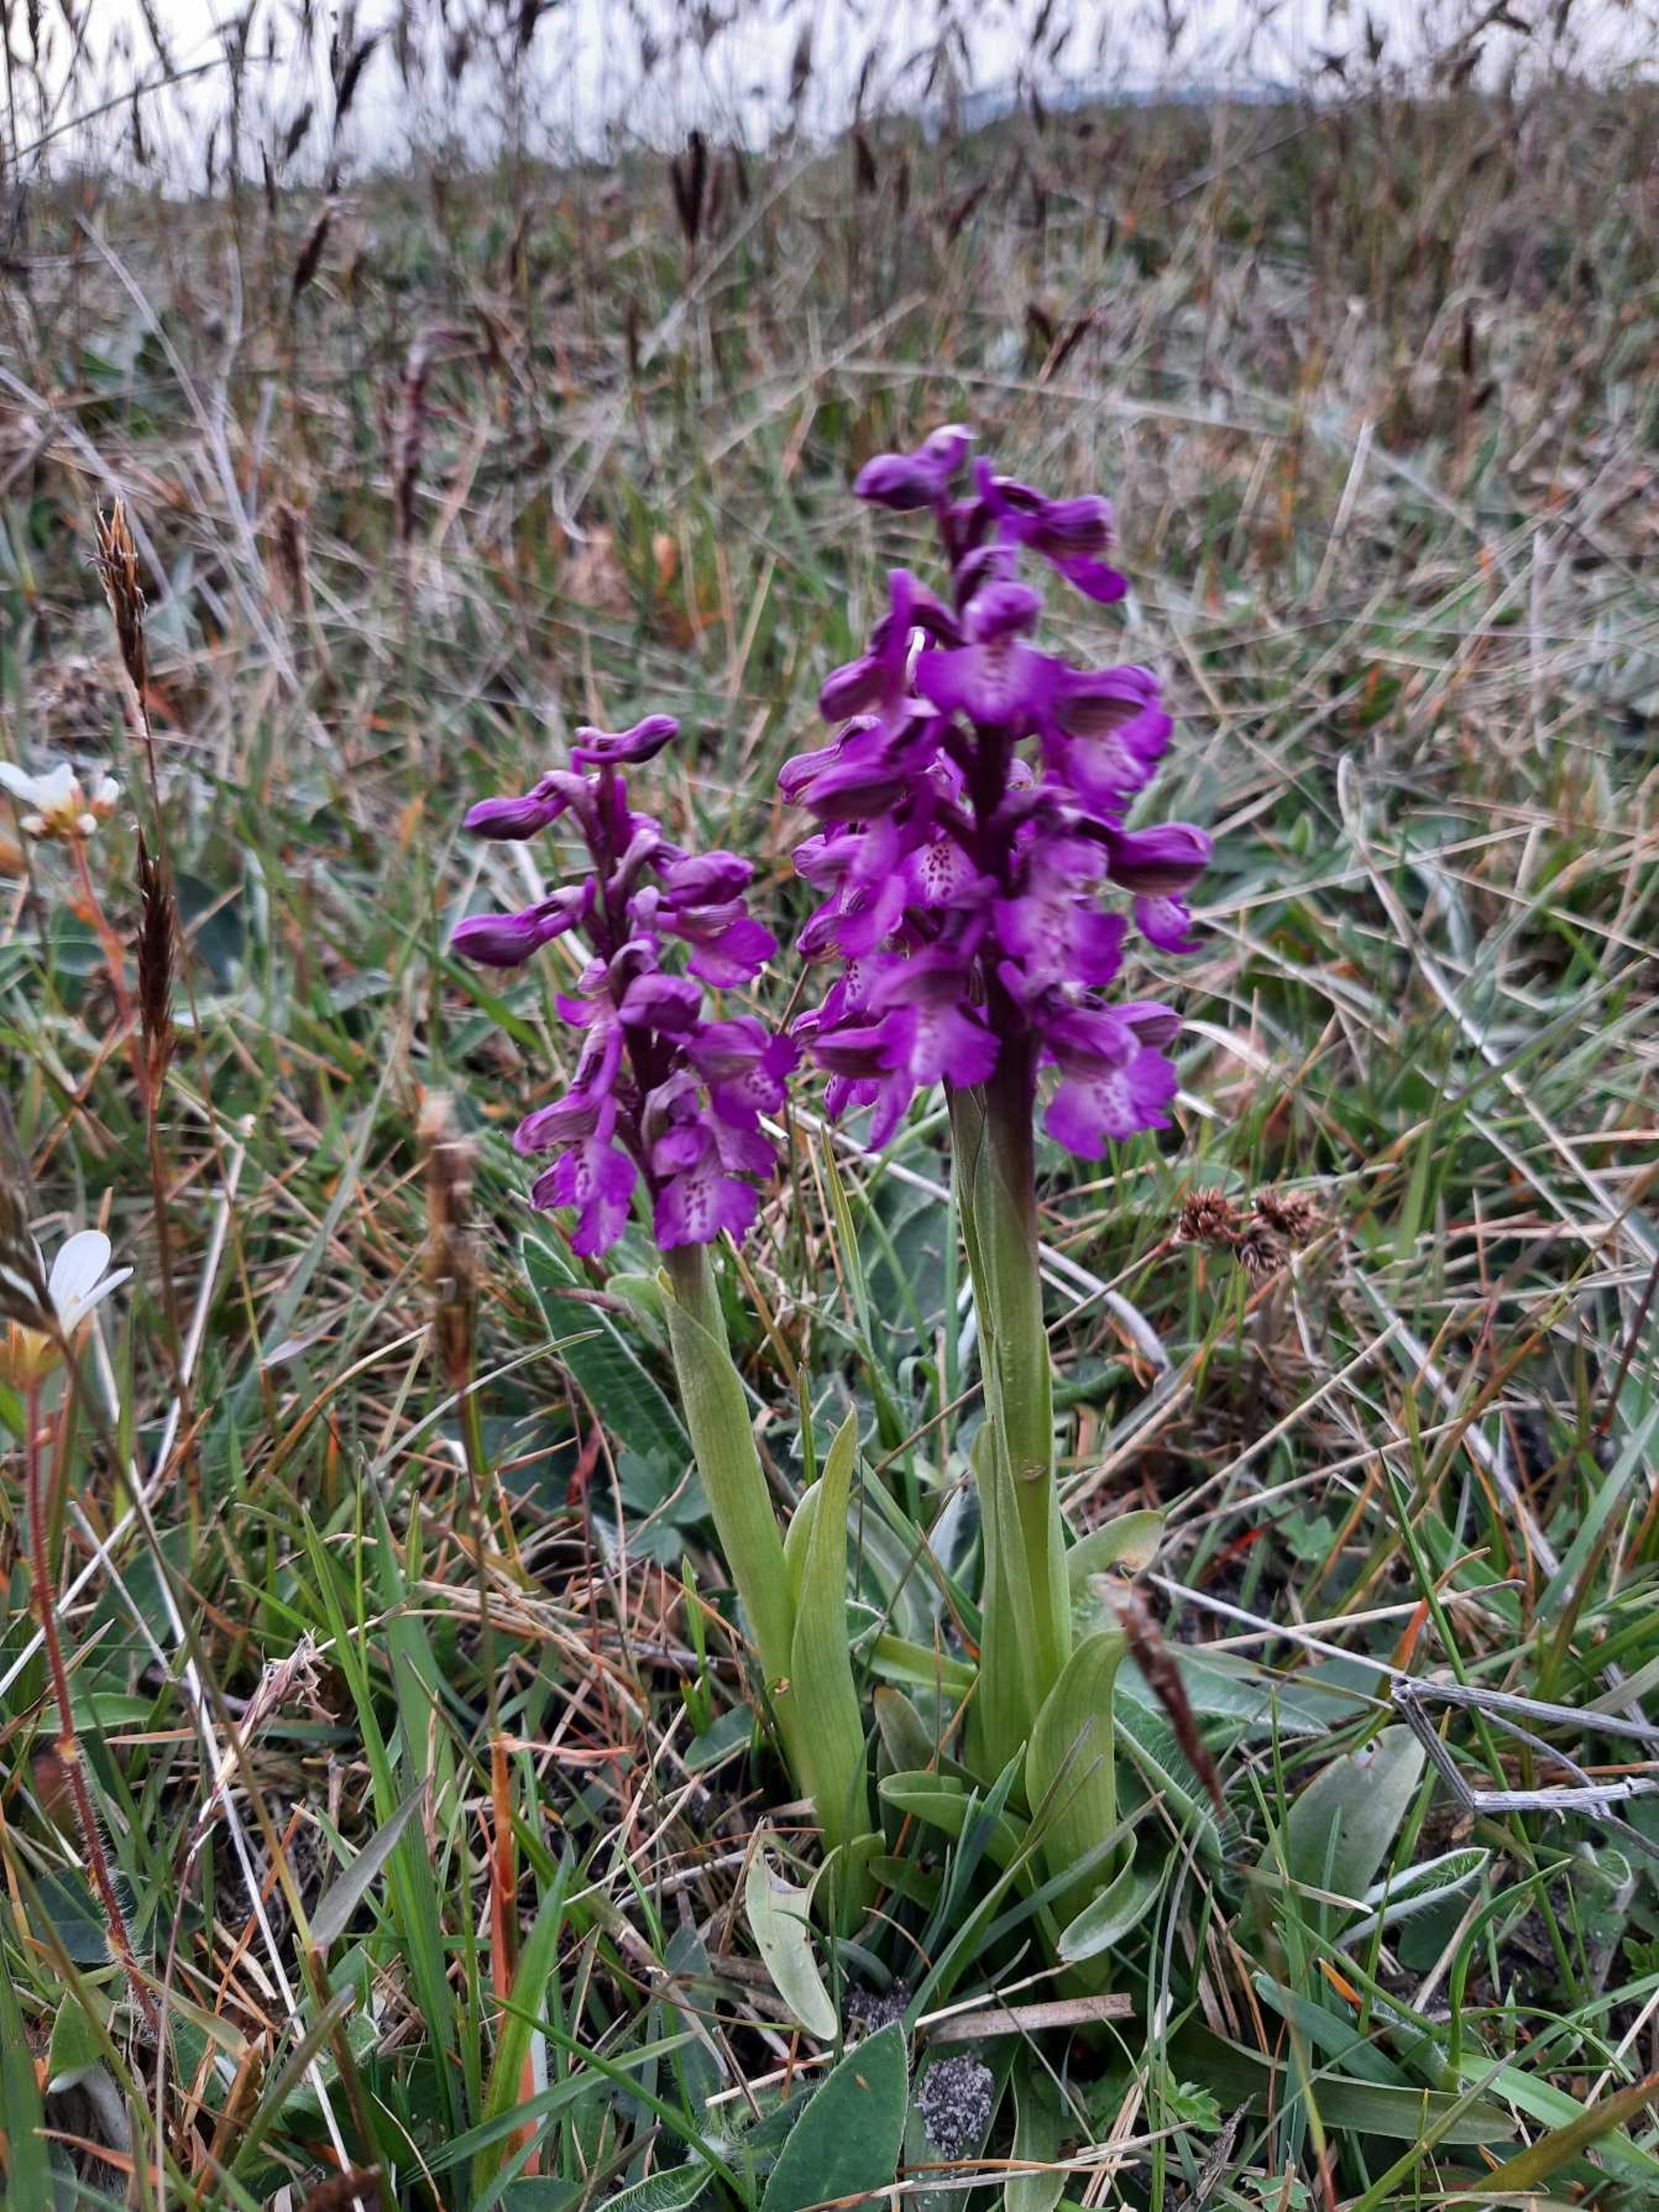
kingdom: Plantae
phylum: Tracheophyta
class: Liliopsida
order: Asparagales
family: Orchidaceae
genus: Anacamptis
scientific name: Anacamptis morio
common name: Salepgøgeurt
